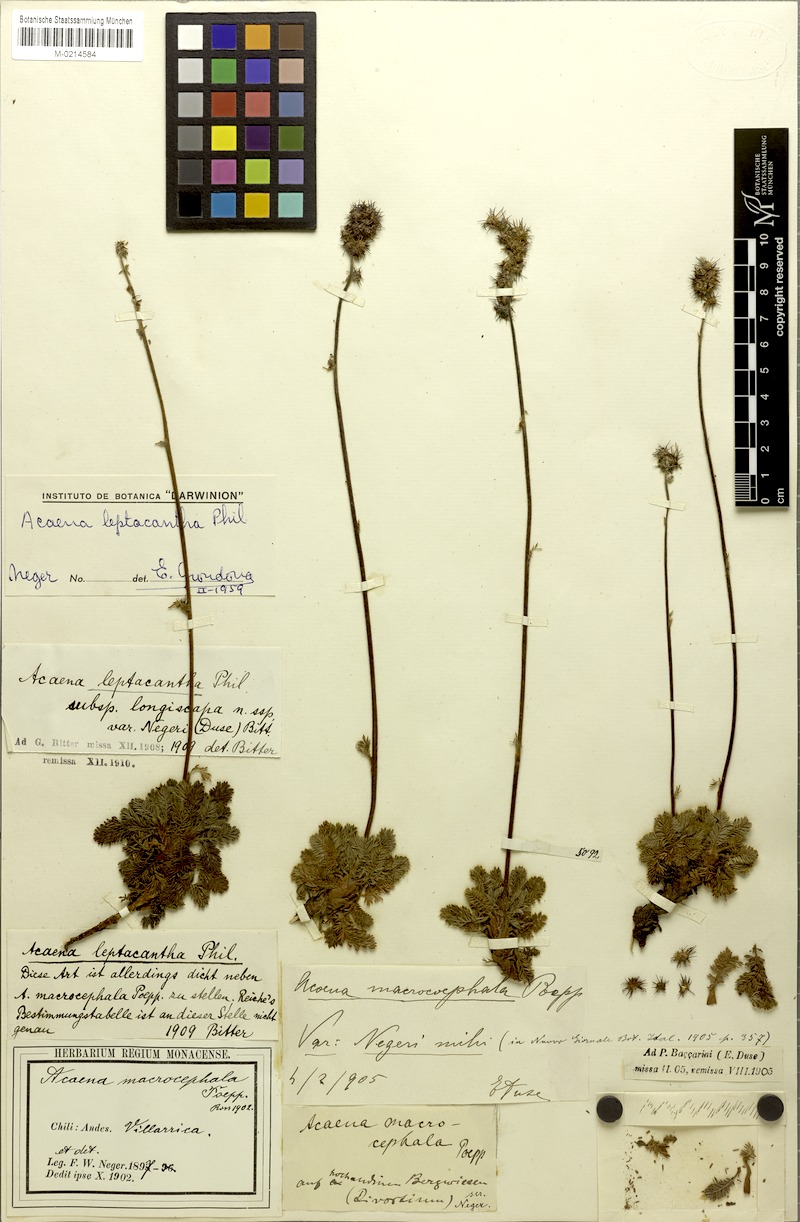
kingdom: Plantae
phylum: Tracheophyta
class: Magnoliopsida
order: Rosales
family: Rosaceae
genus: Acaena
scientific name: Acaena leptacantha
